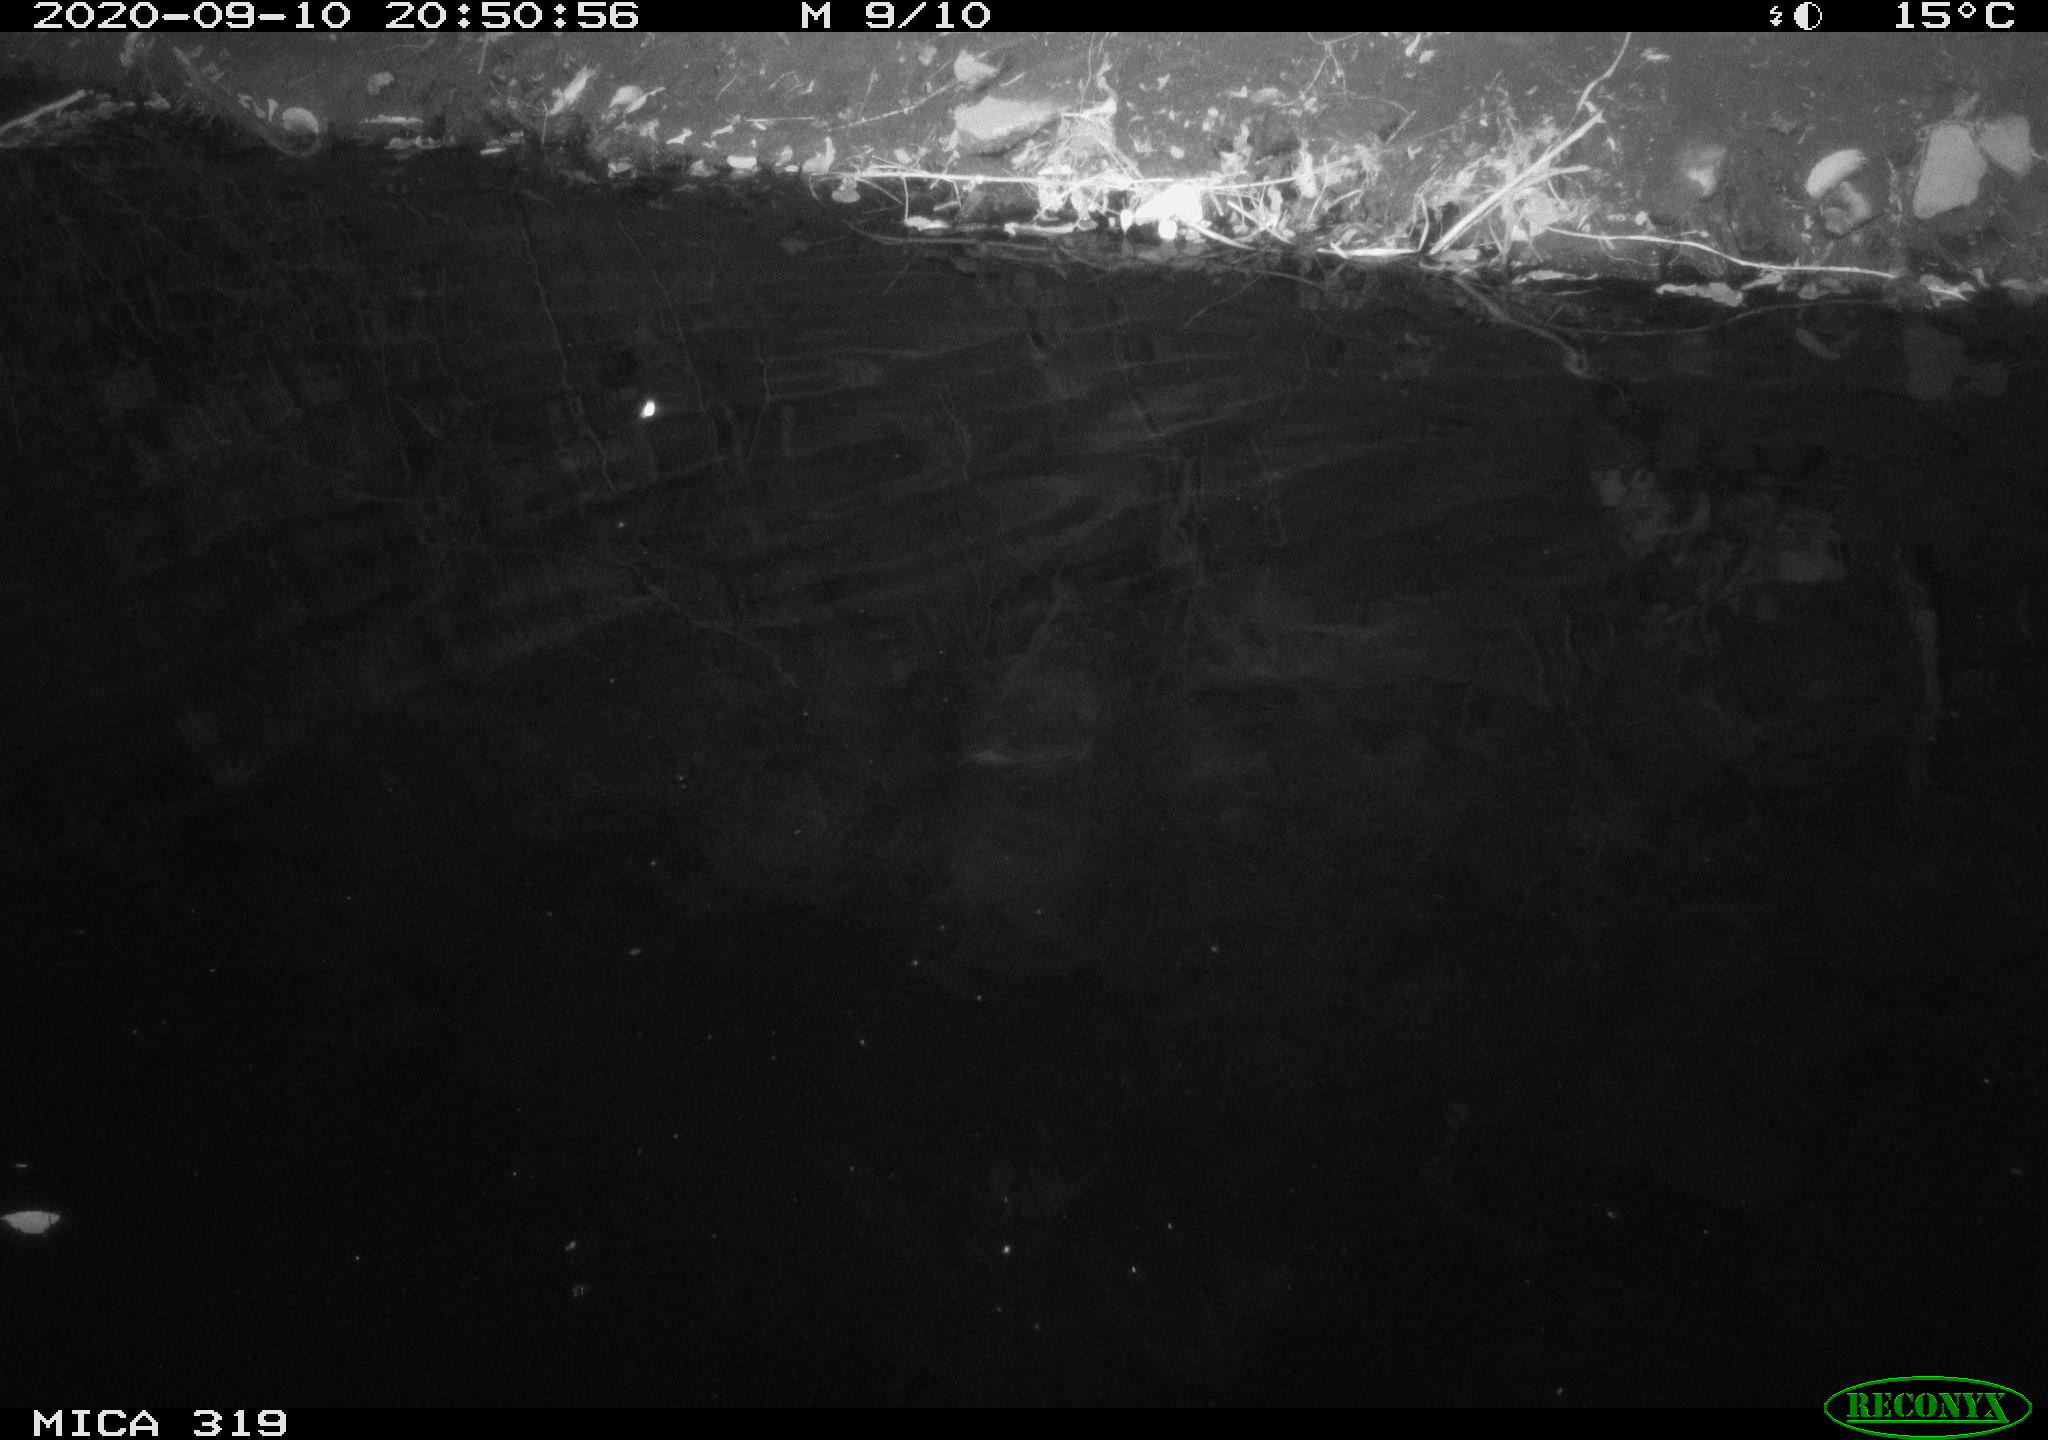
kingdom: Animalia
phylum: Chordata
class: Aves
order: Anseriformes
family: Anatidae
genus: Anas
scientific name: Anas platyrhynchos
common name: Mallard
